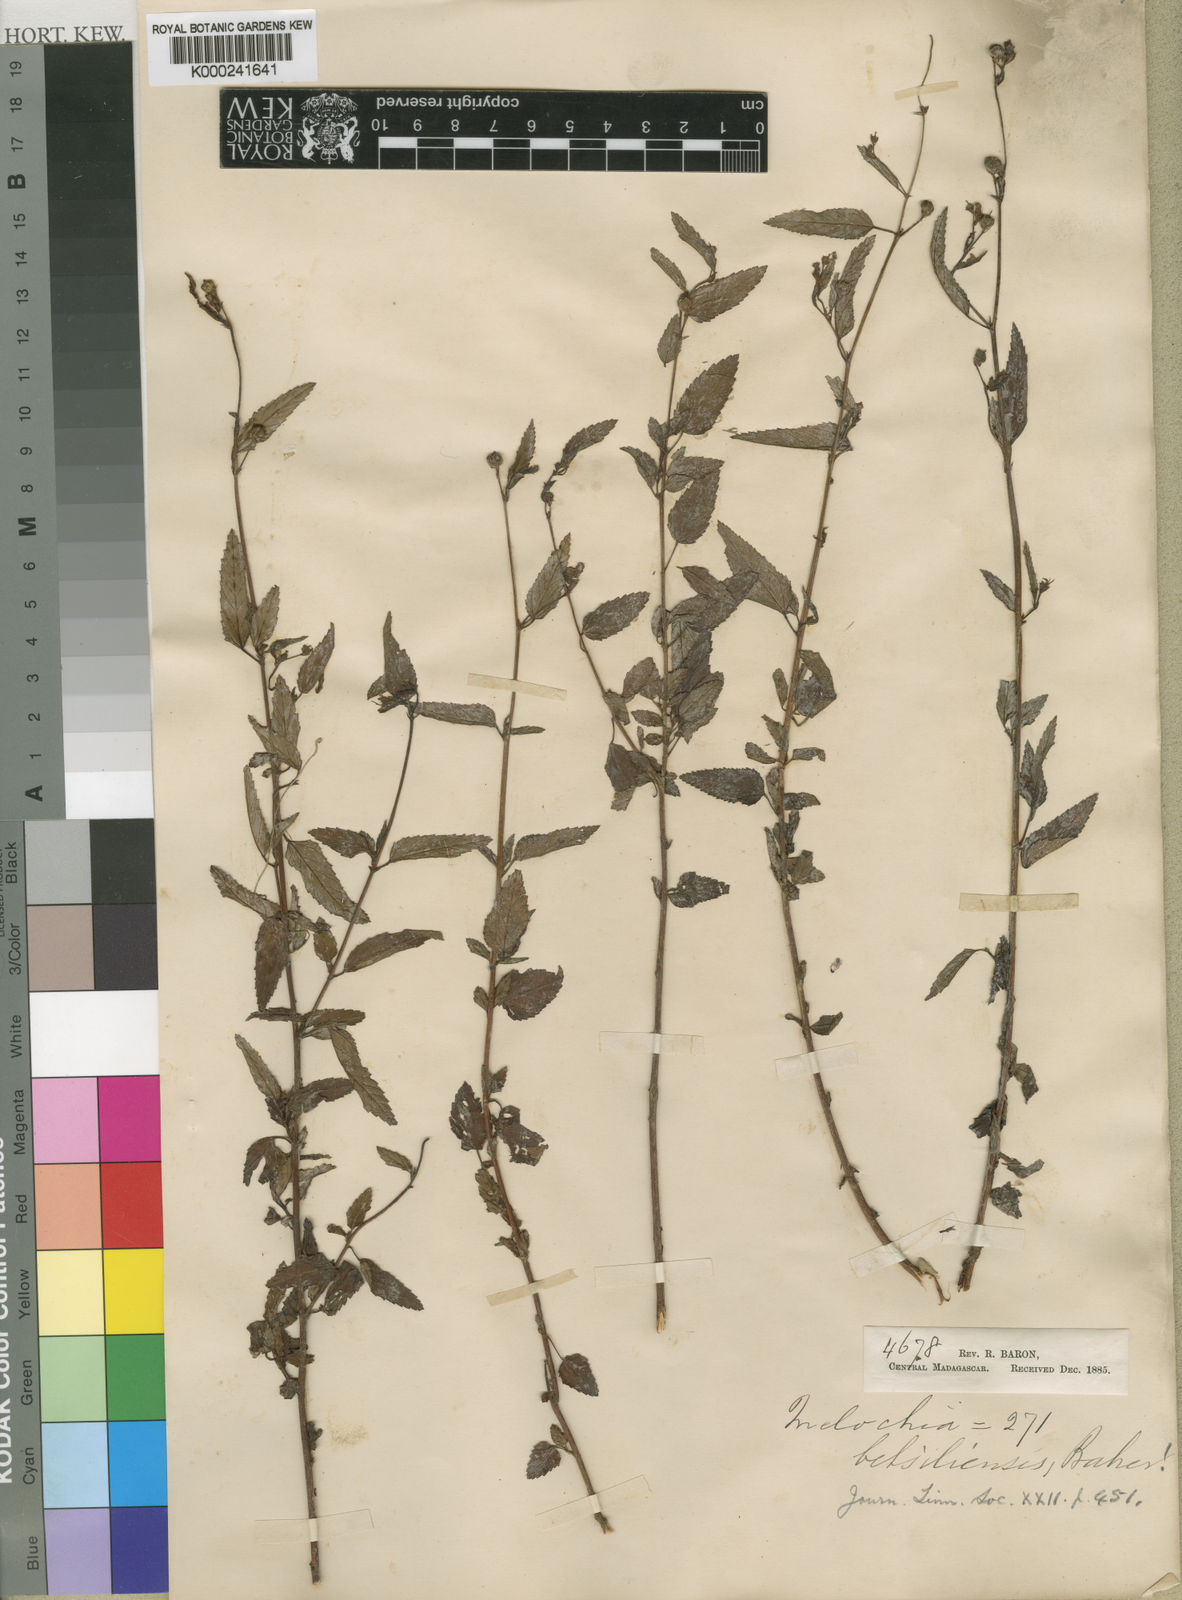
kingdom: Plantae
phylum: Tracheophyta
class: Magnoliopsida
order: Malvales
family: Malvaceae
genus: Melochia
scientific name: Melochia betsiliensis
